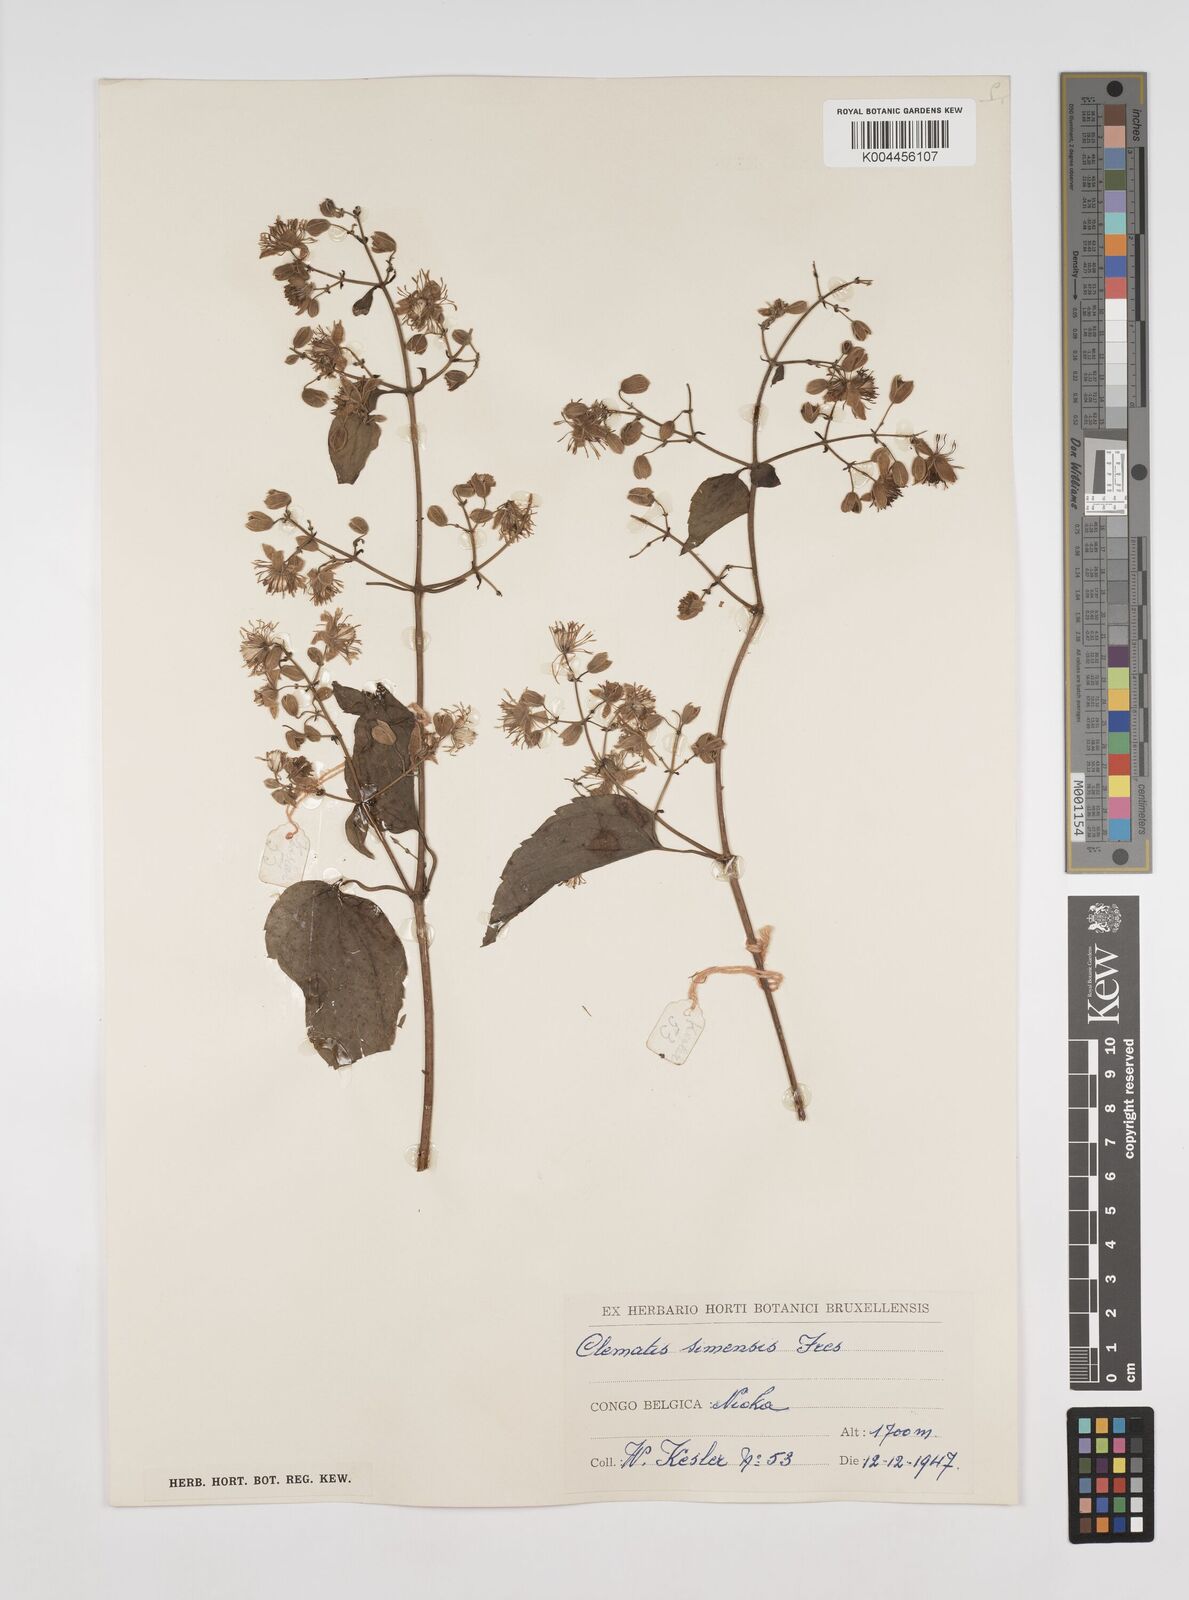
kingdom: Plantae
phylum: Tracheophyta
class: Magnoliopsida
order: Ranunculales
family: Ranunculaceae
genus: Clematis
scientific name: Clematis simensis
